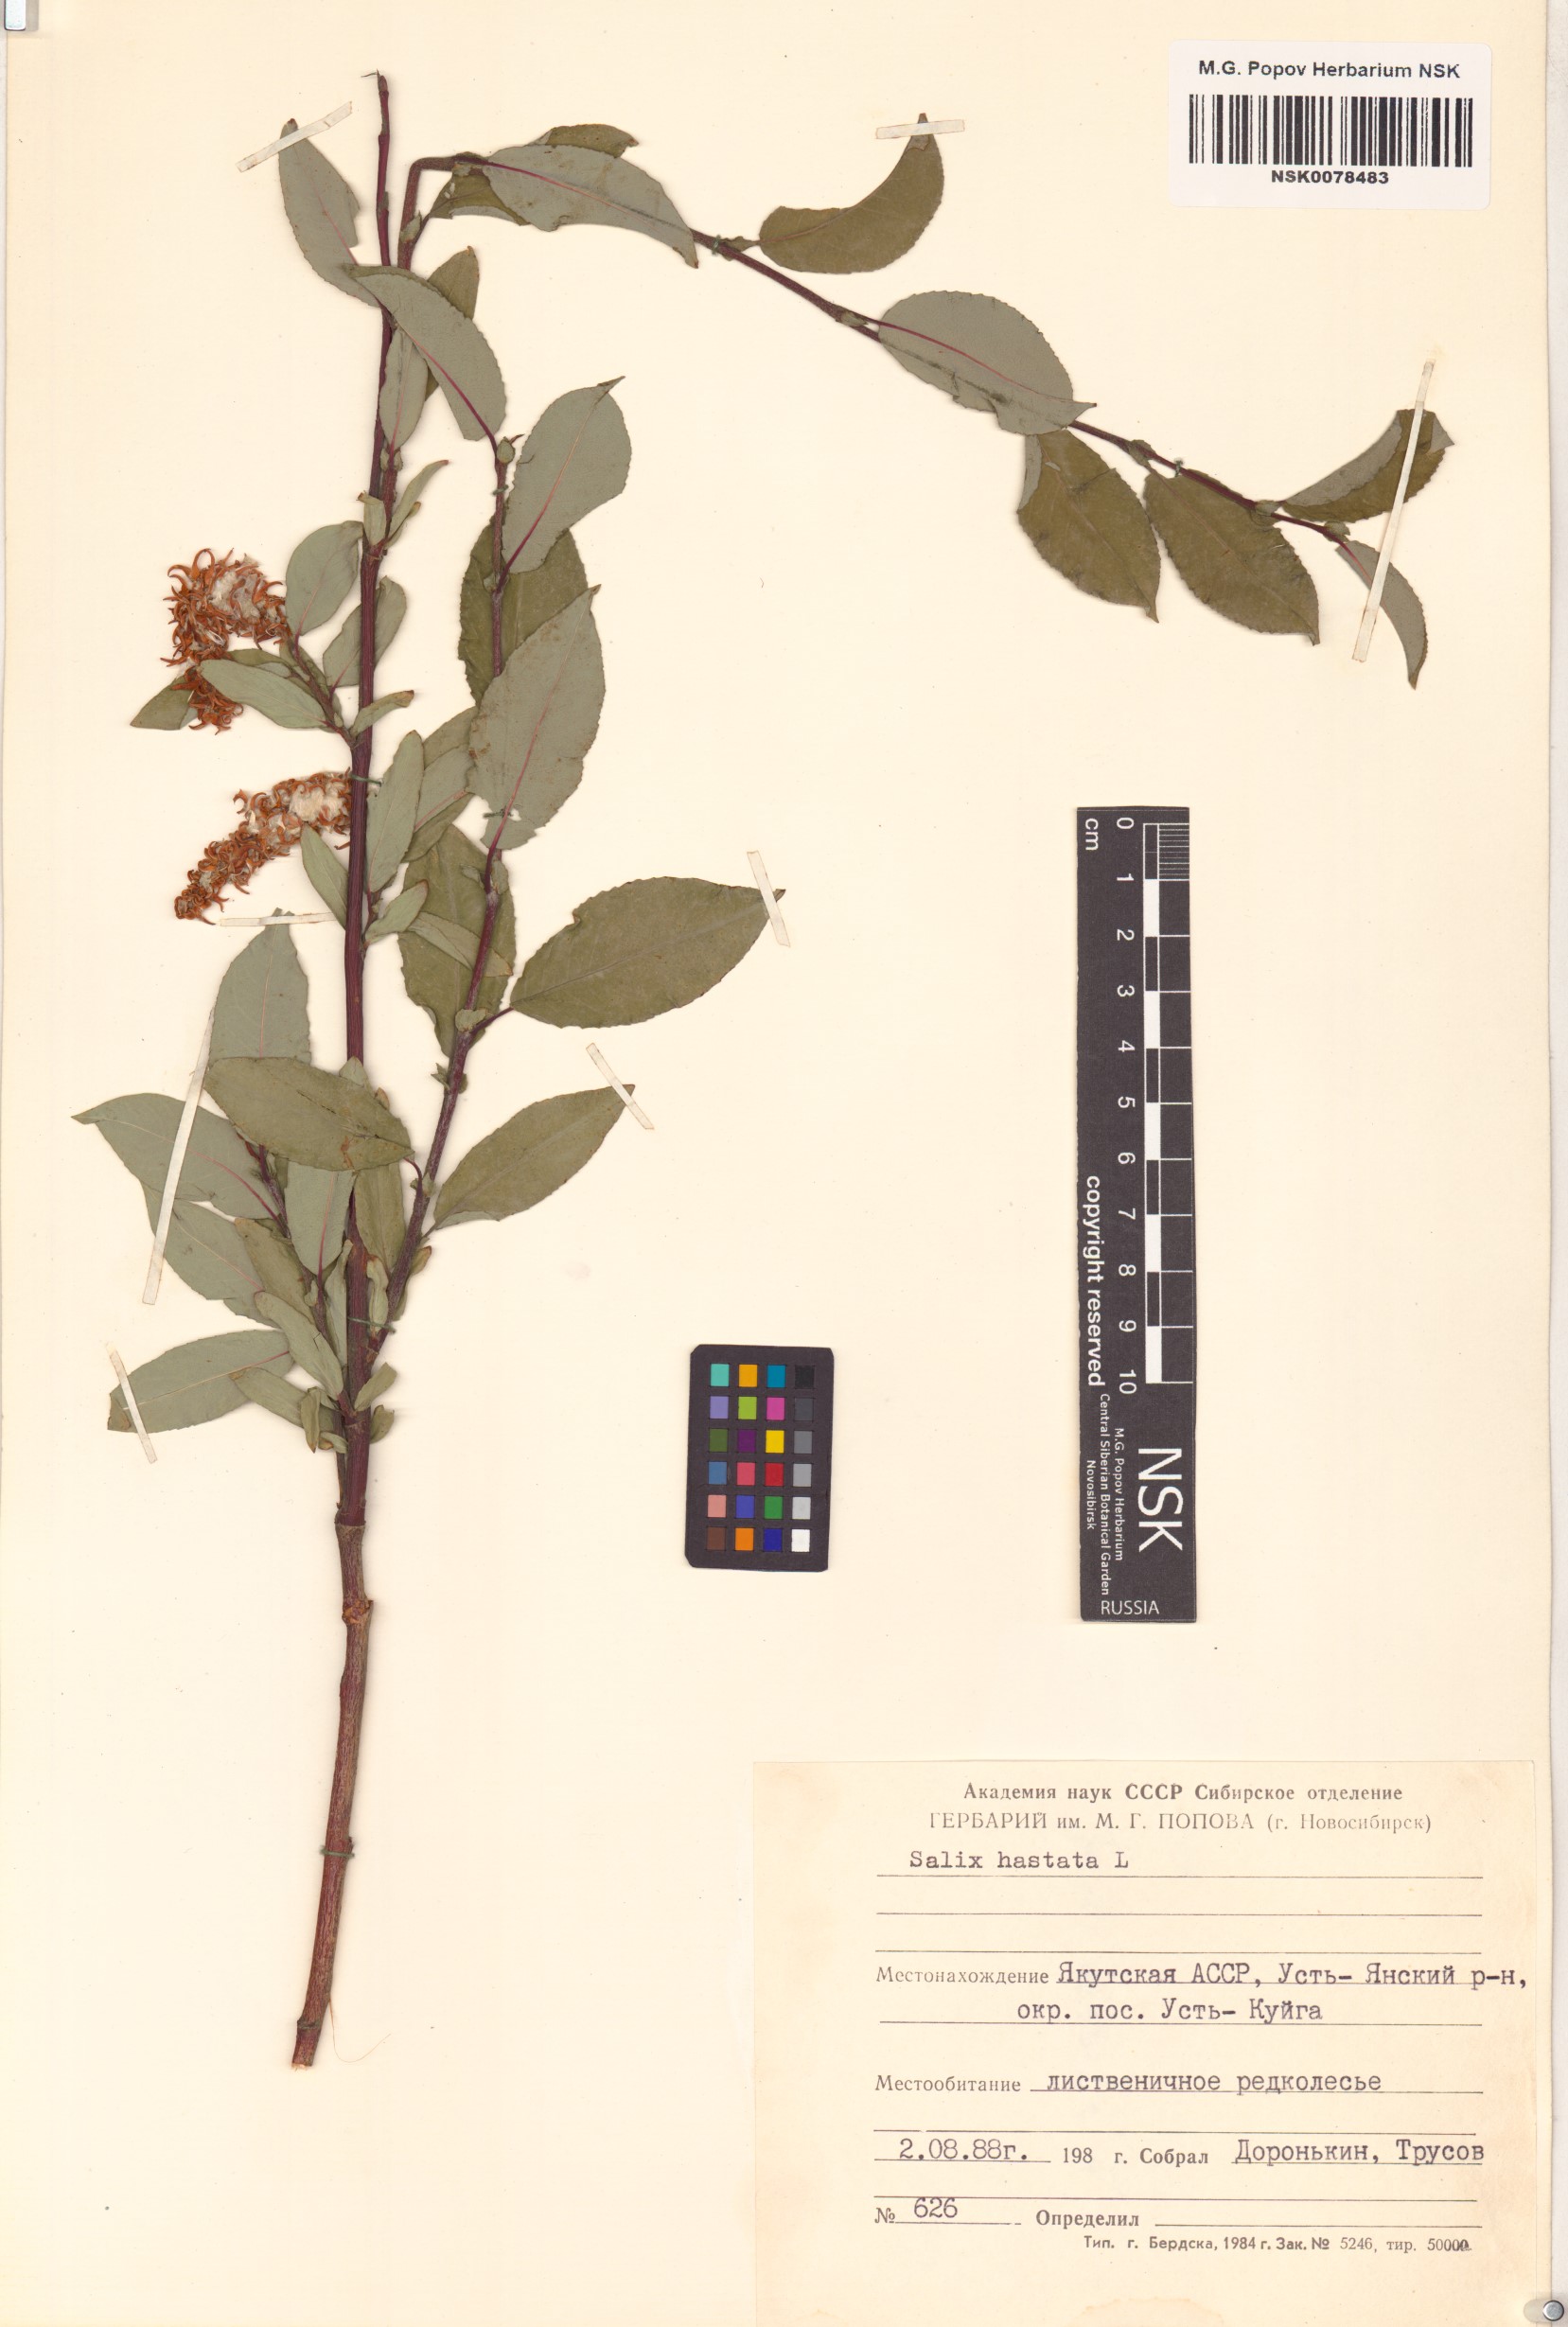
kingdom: Plantae
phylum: Tracheophyta
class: Magnoliopsida
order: Malpighiales
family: Salicaceae
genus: Salix
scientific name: Salix hastata
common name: Halberd willow
